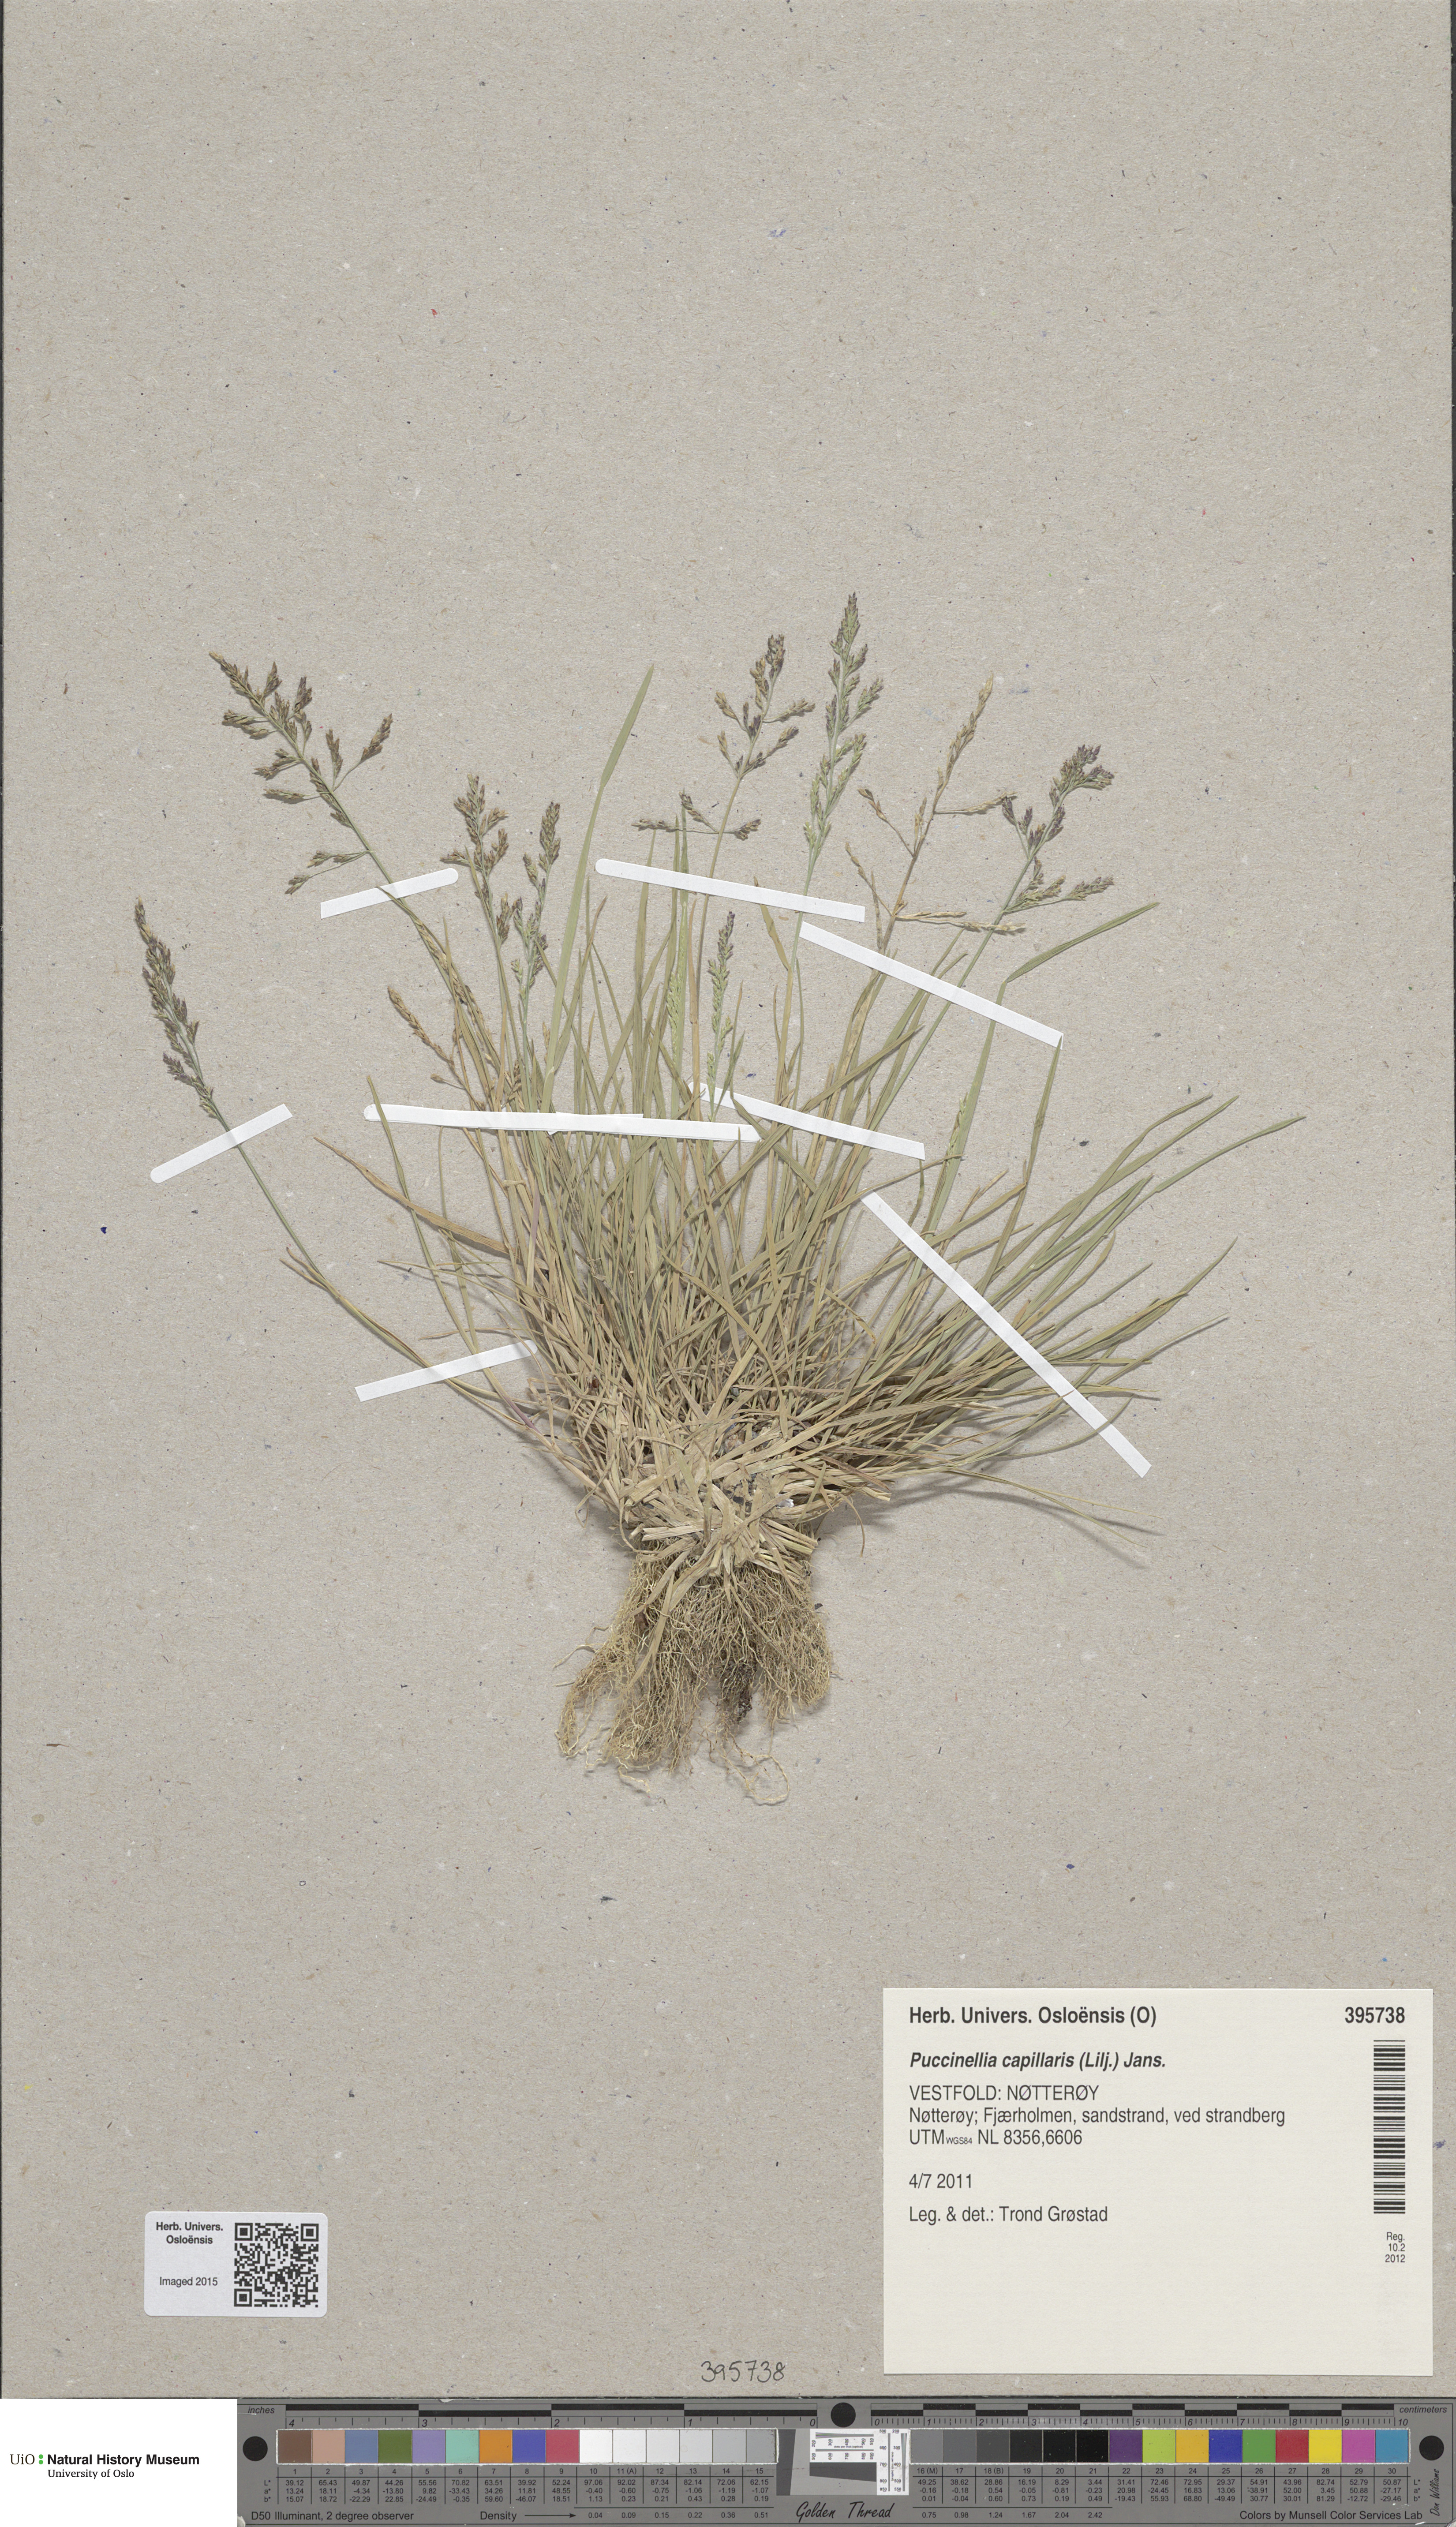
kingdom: Plantae
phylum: Tracheophyta
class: Liliopsida
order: Poales
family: Poaceae
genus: Puccinellia
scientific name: Puccinellia distans
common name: Weeping alkaligrass
